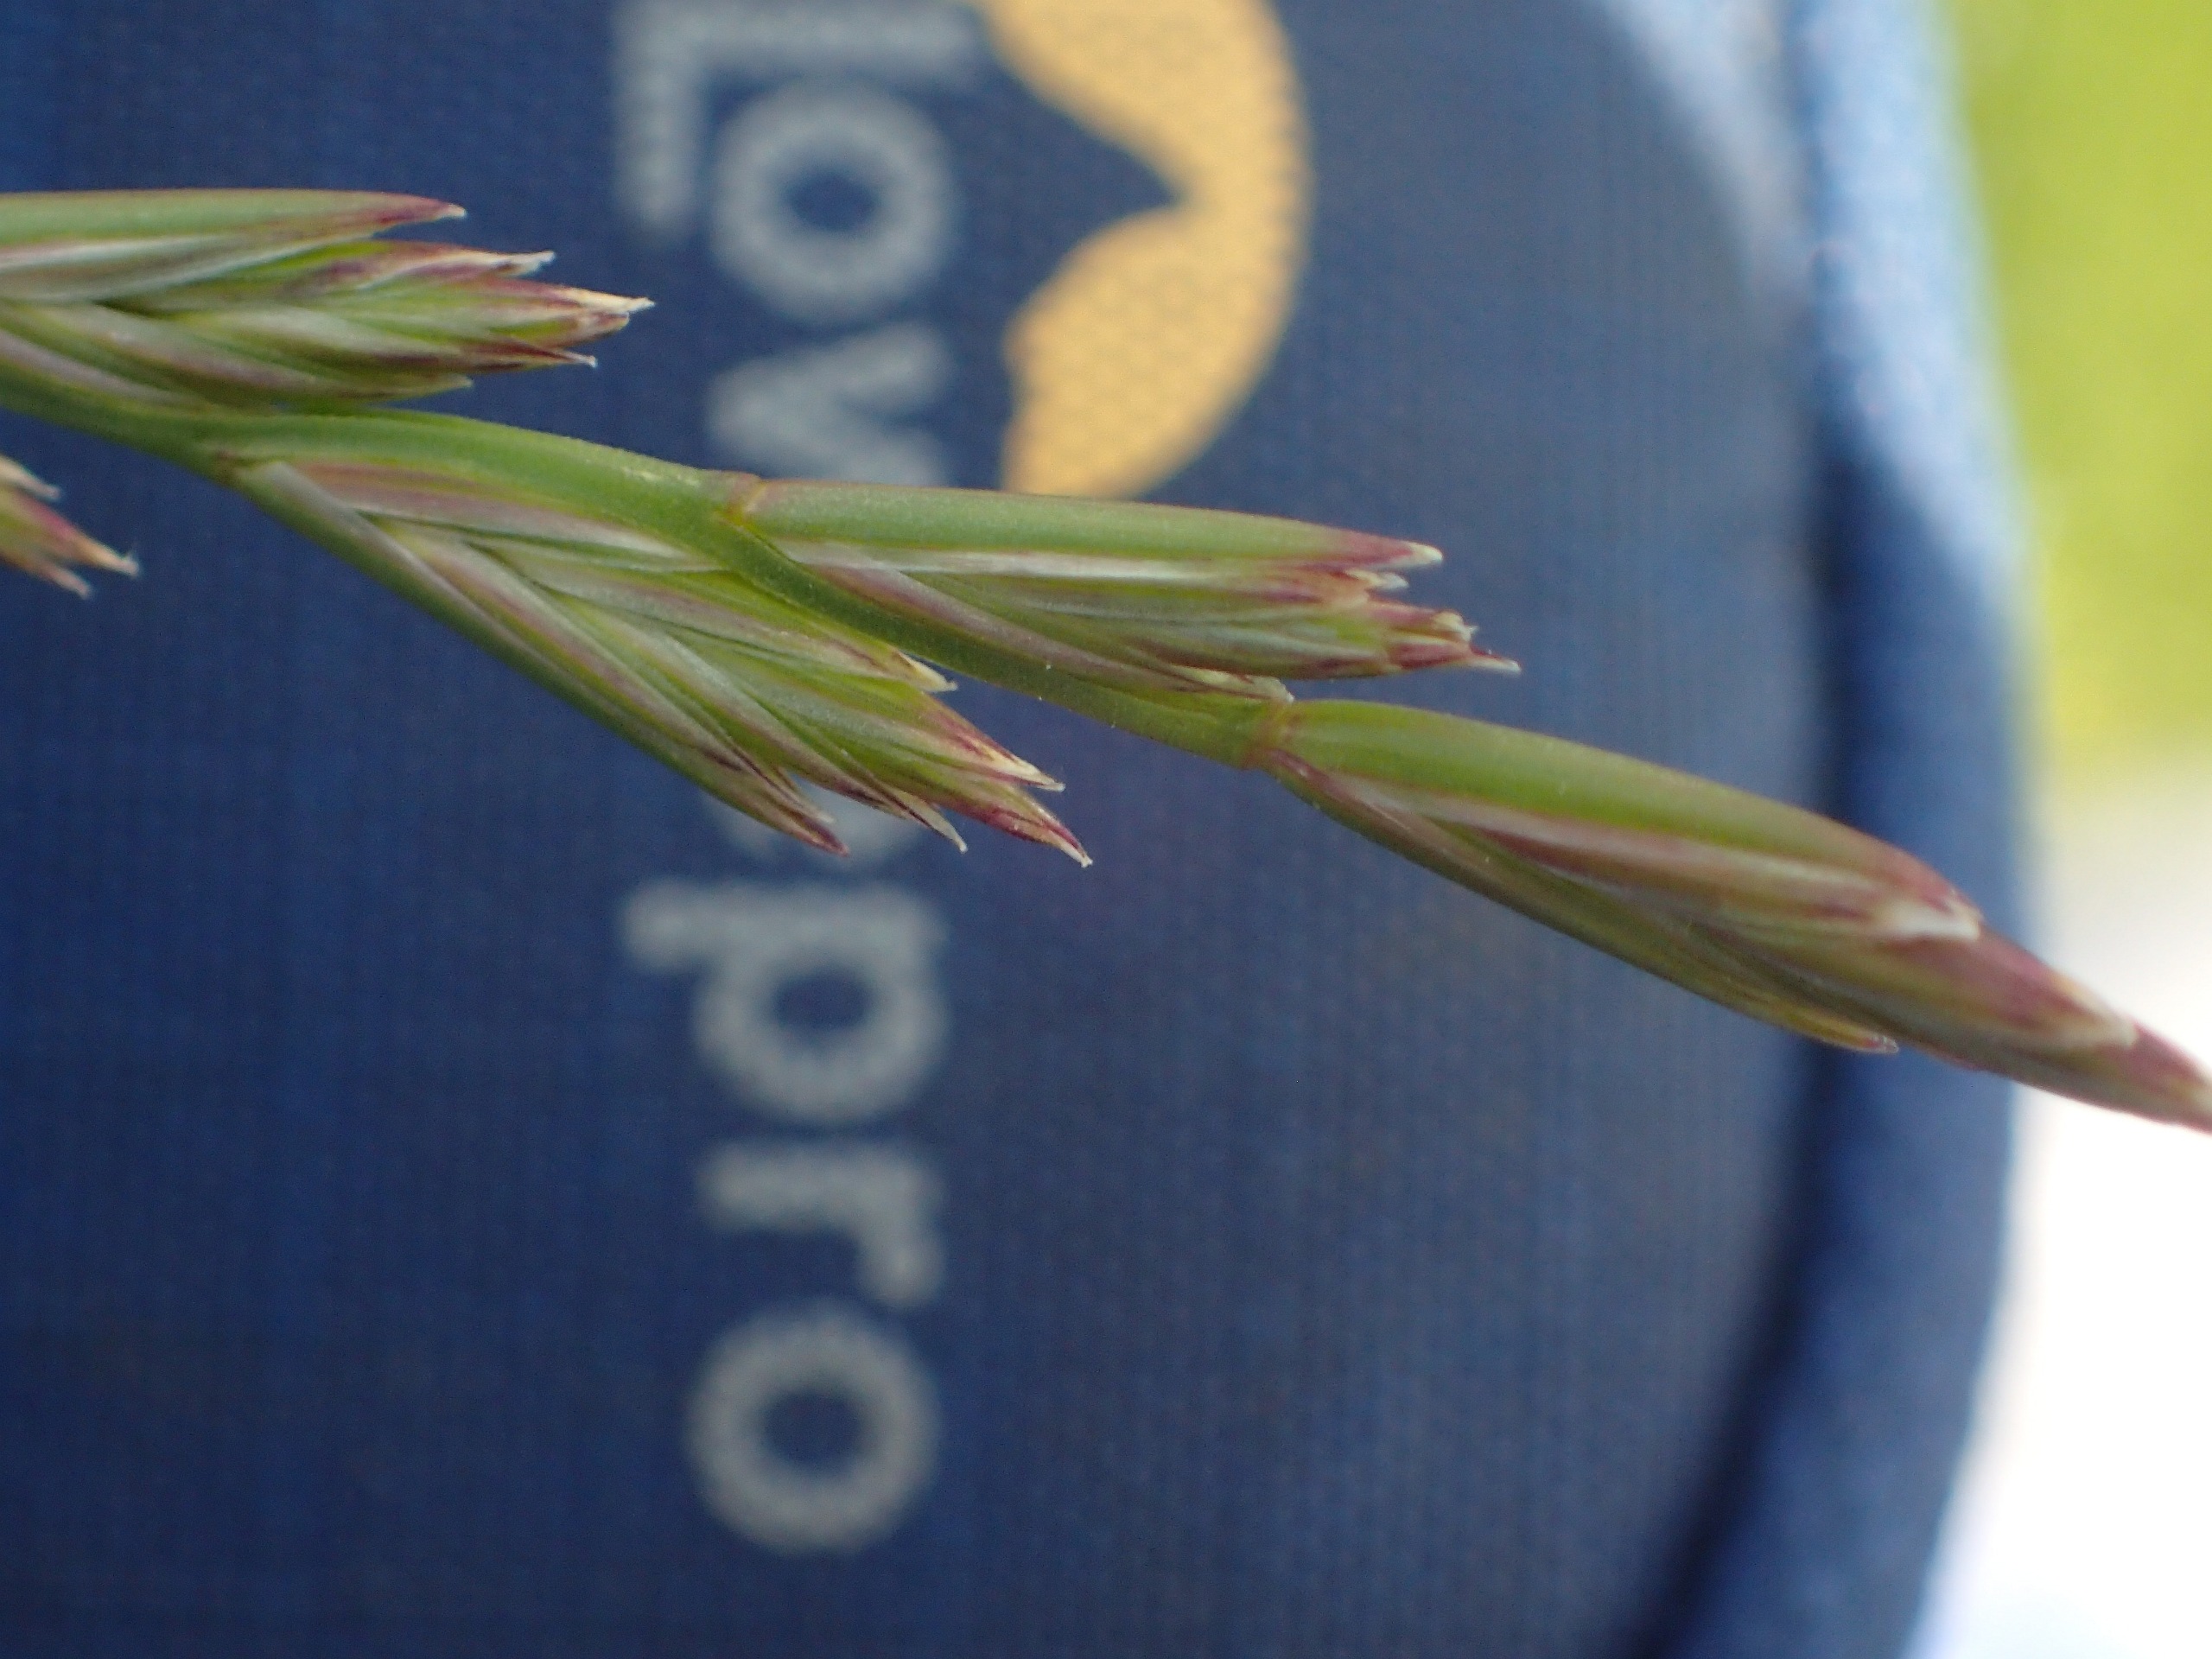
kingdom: Plantae
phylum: Tracheophyta
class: Liliopsida
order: Poales
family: Poaceae
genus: Lolium
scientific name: Lolium perenne
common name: Almindelig rajgræs
